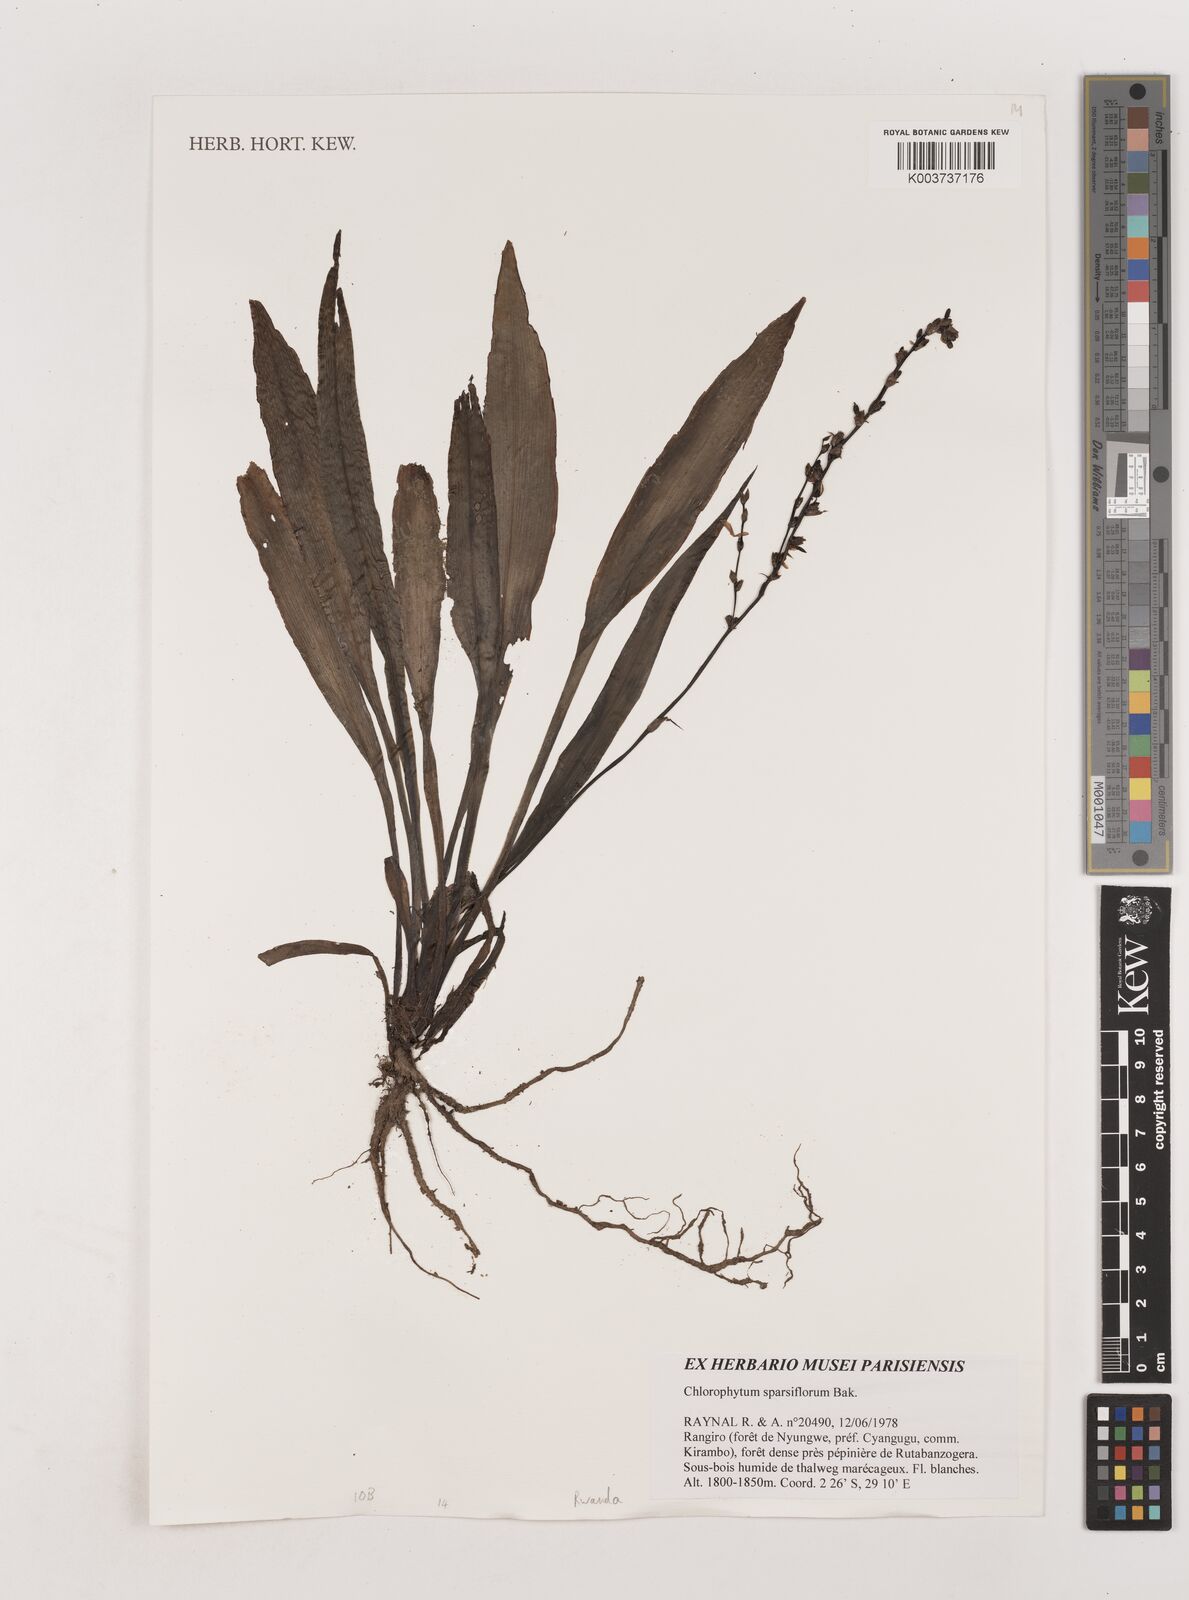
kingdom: Plantae
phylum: Tracheophyta
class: Liliopsida
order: Asparagales
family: Asparagaceae
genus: Chlorophytum
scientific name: Chlorophytum sparsiflorum
